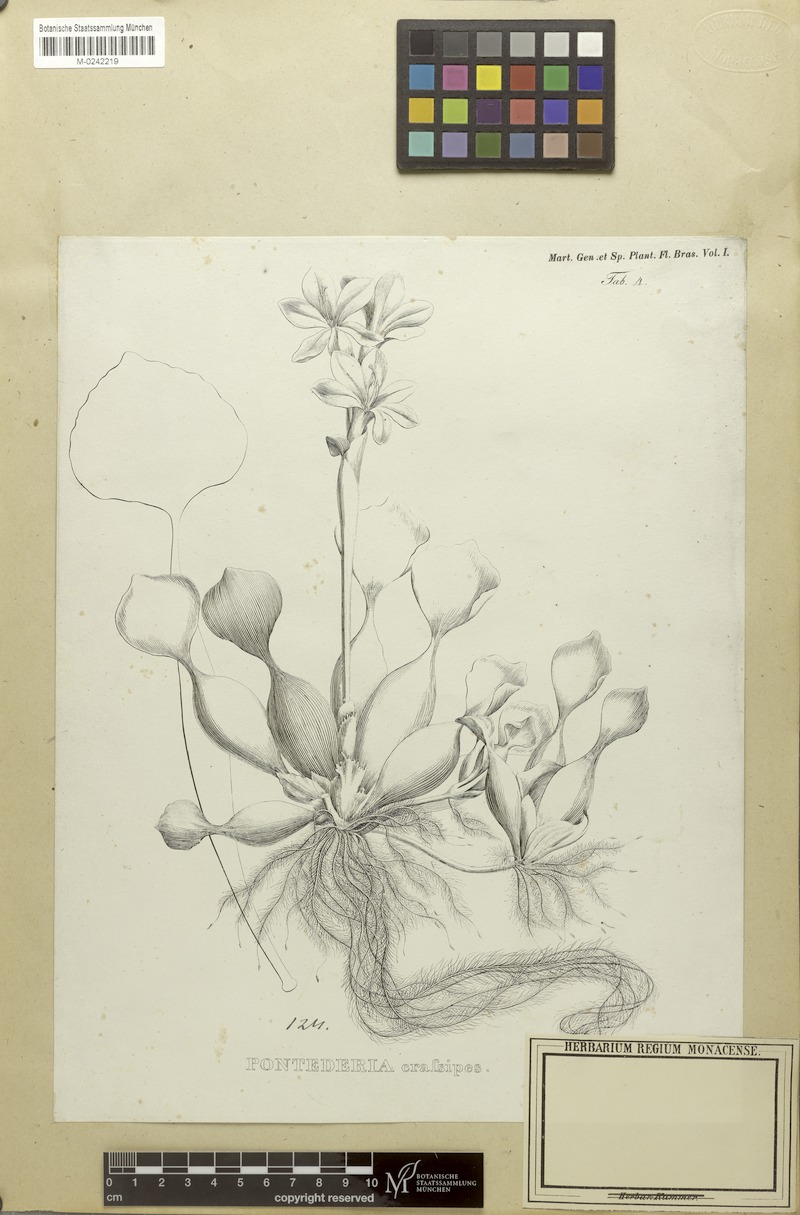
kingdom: Plantae
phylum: Tracheophyta
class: Liliopsida
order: Commelinales
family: Pontederiaceae
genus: Pontederia
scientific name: Pontederia crassipes
